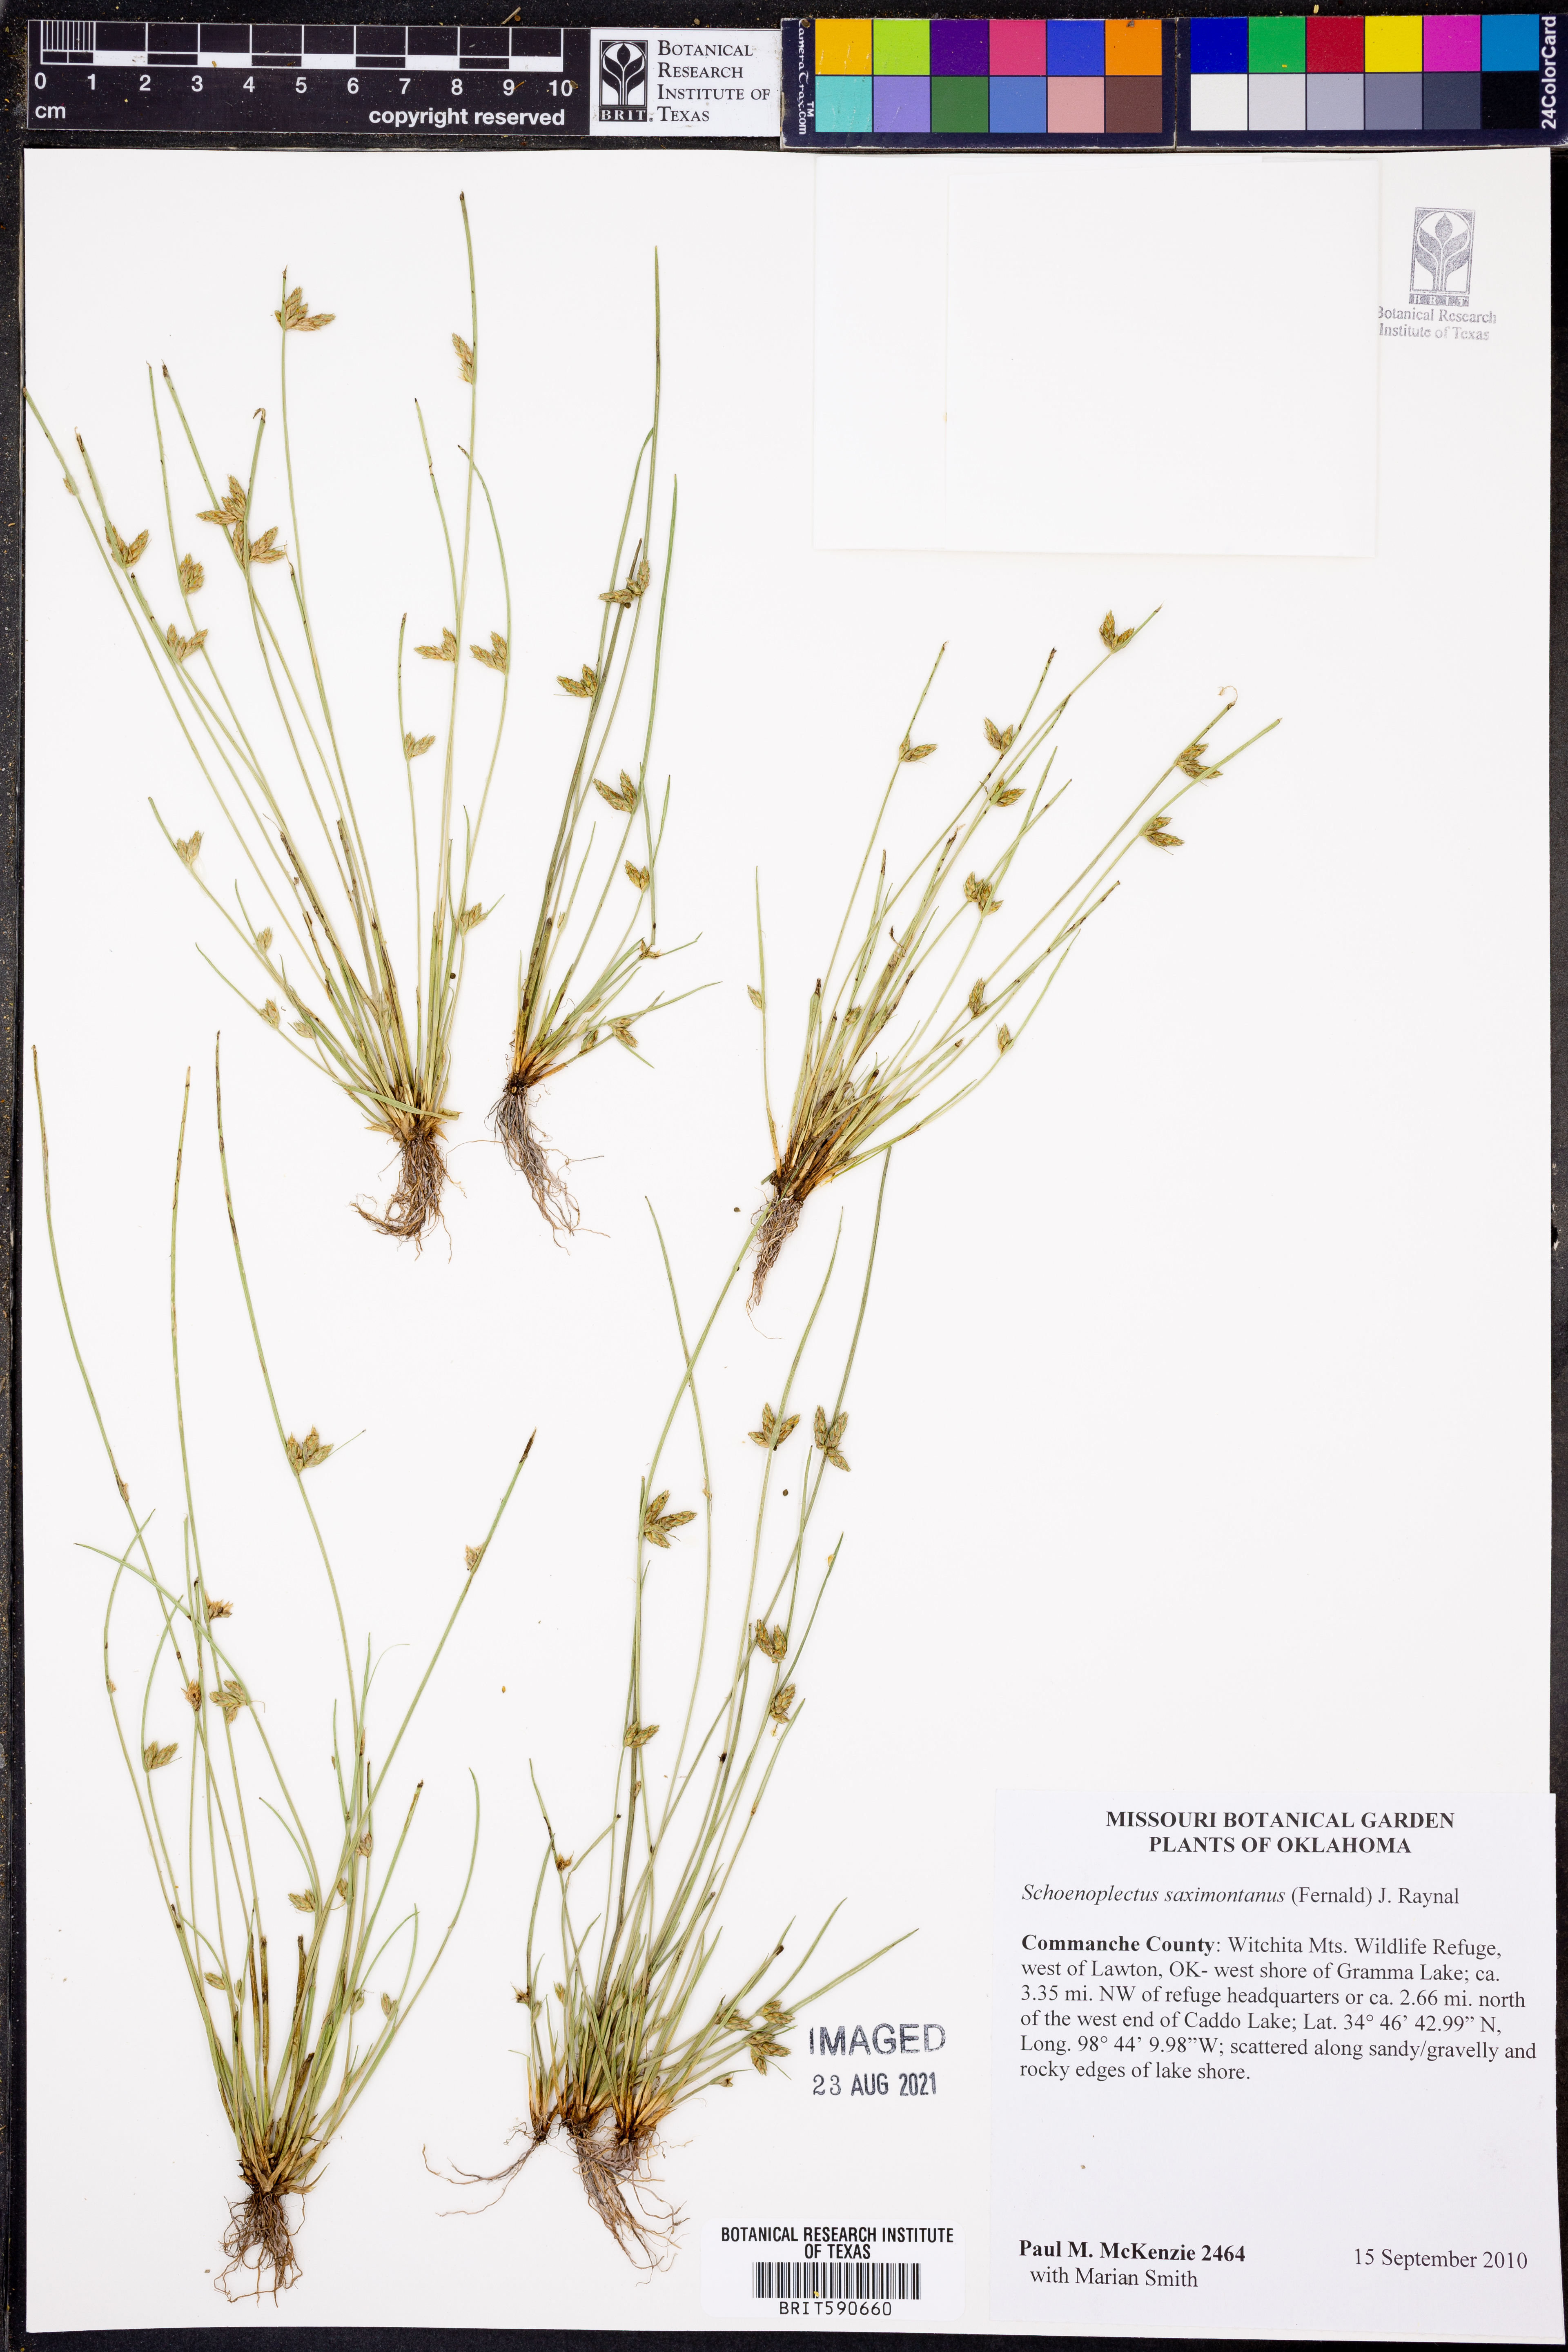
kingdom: Plantae
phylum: Tracheophyta
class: Liliopsida
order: Poales
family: Cyperaceae
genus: Schoenoplectiella
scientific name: Schoenoplectiella saximontana
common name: Rocky mountain clubrush
